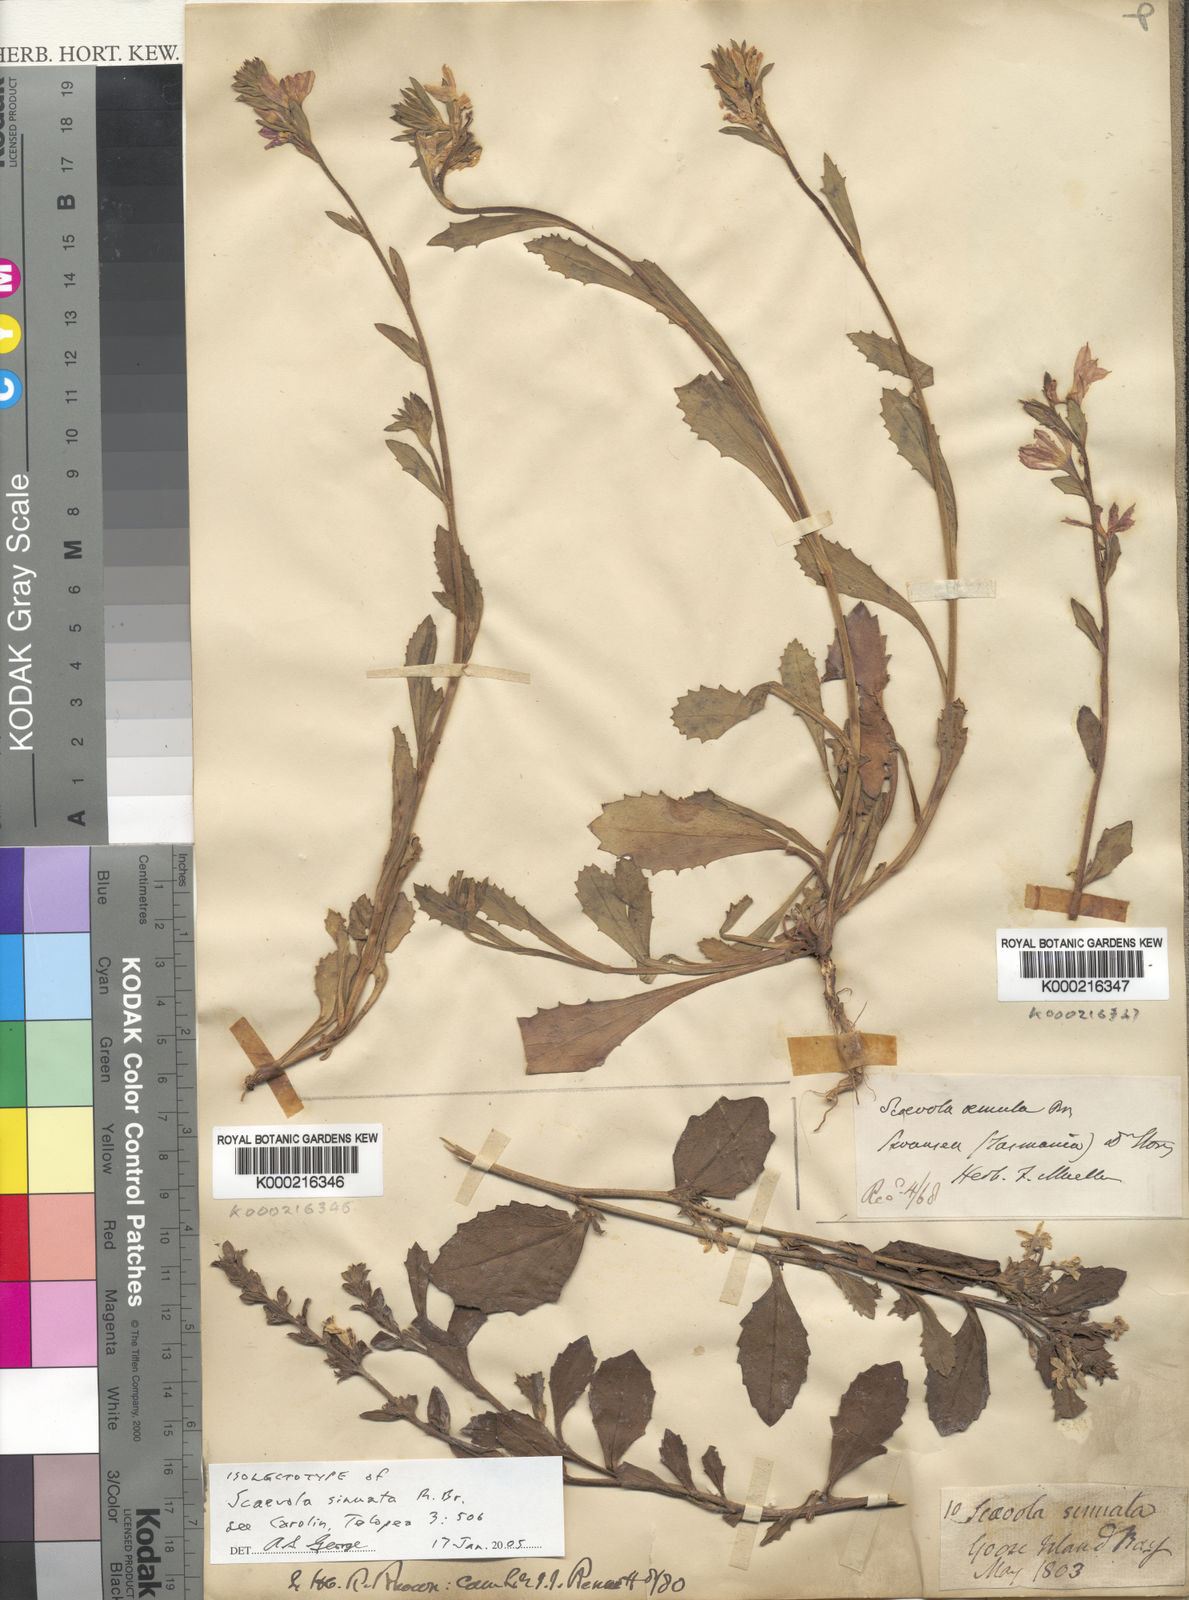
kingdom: Plantae
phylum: Tracheophyta
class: Magnoliopsida
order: Asterales
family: Goodeniaceae
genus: Scaevola
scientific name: Scaevola aemula
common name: Common fanflower
